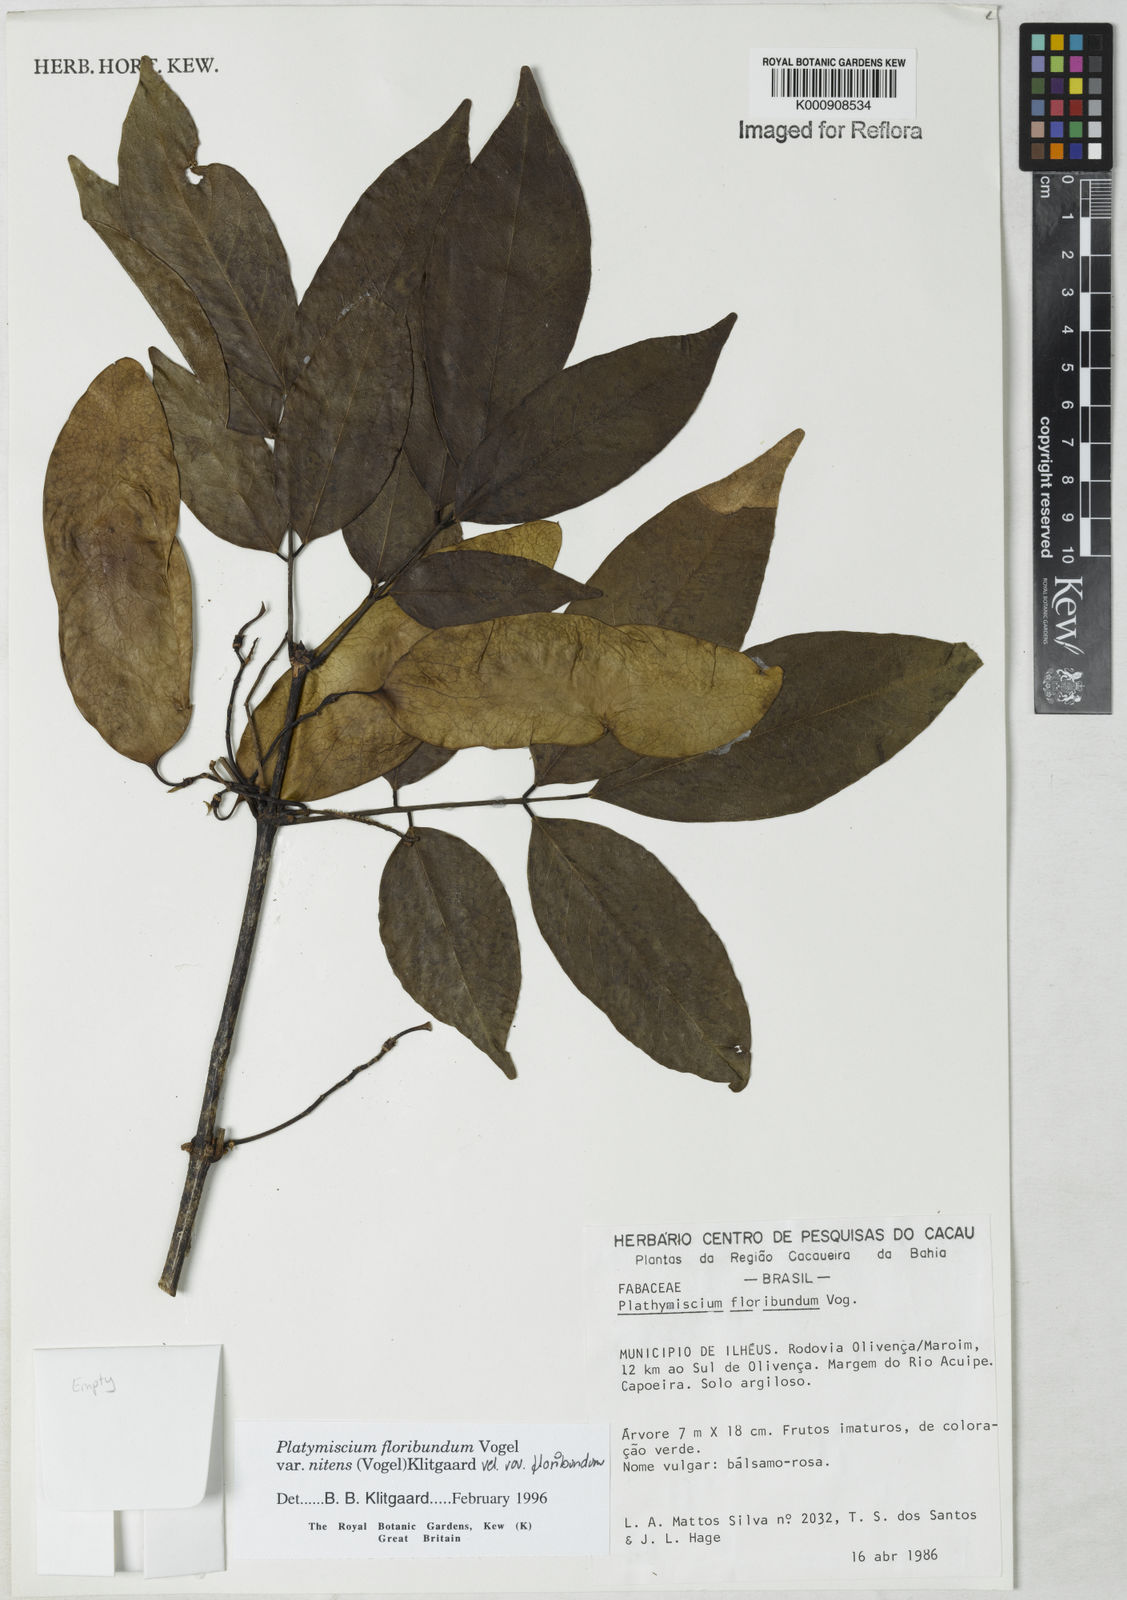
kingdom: Plantae
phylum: Tracheophyta
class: Magnoliopsida
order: Fabales
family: Fabaceae
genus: Platymiscium
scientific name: Platymiscium floribundum
